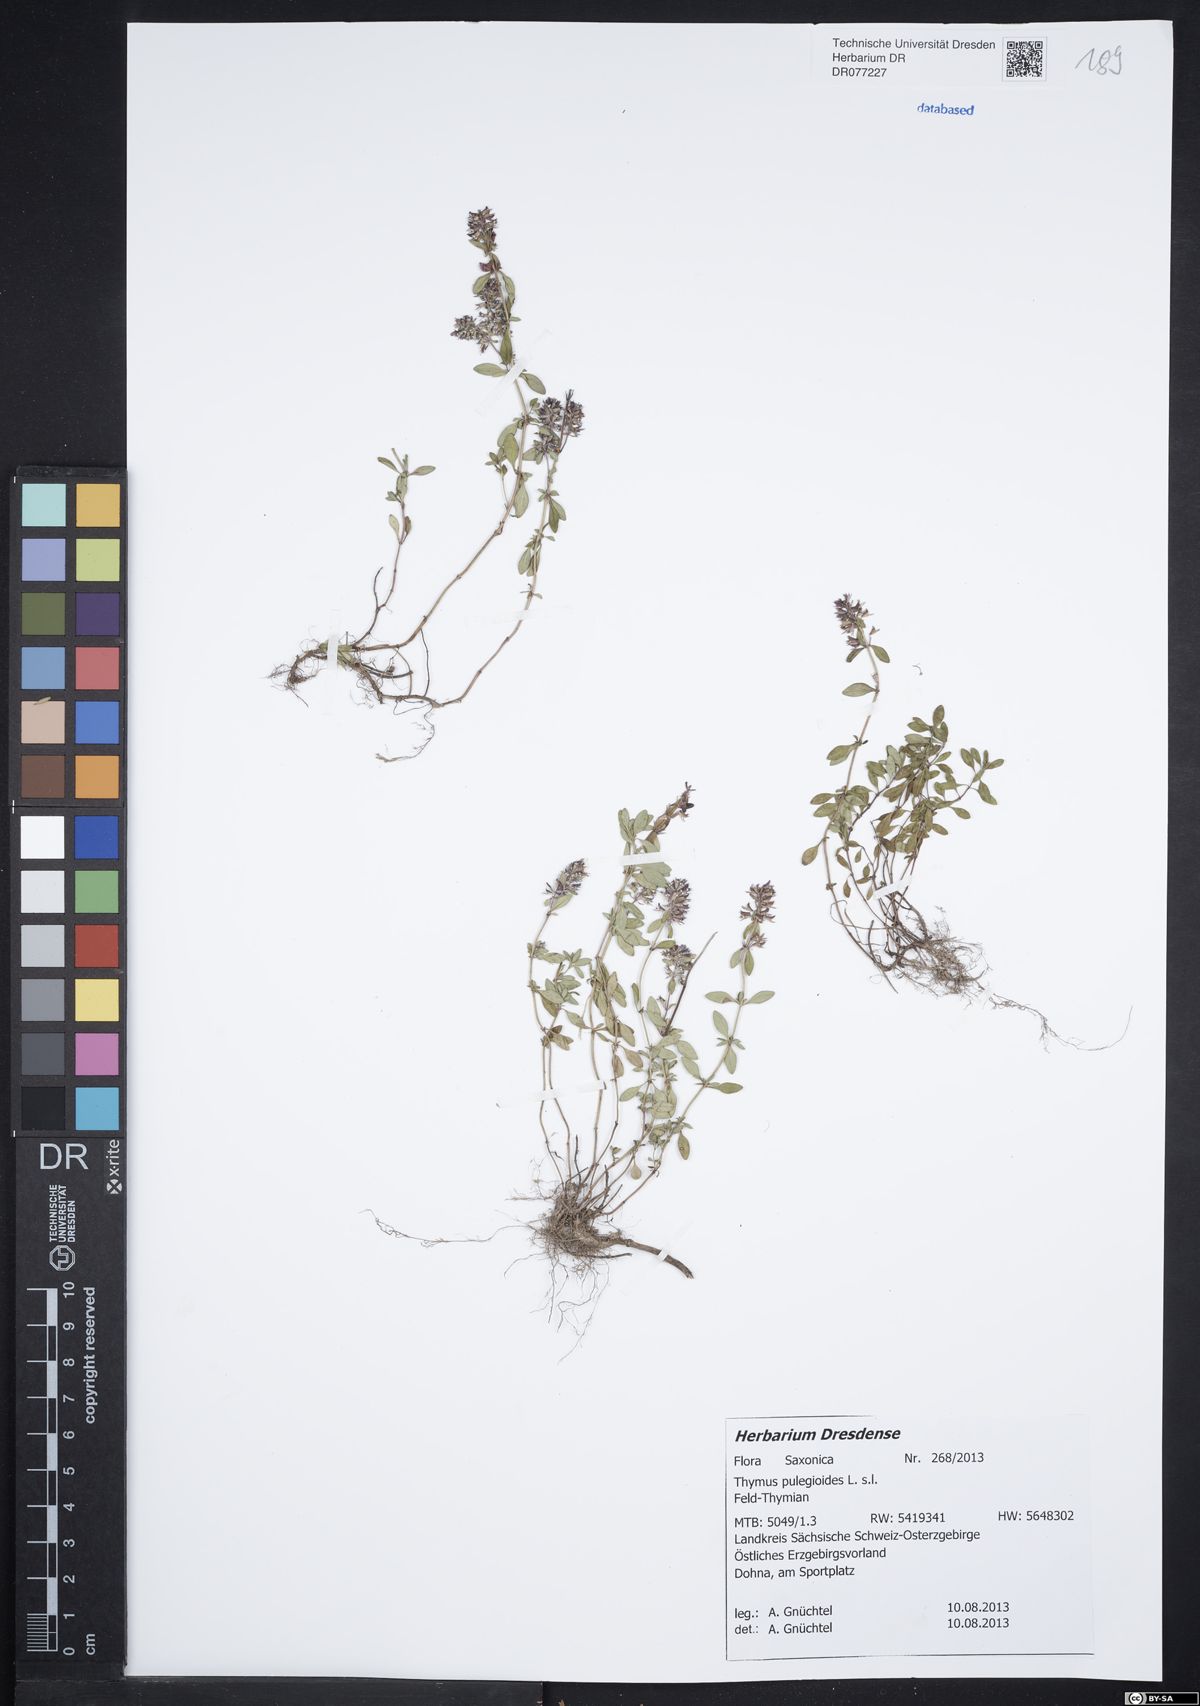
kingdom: Plantae
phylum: Tracheophyta
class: Magnoliopsida
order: Lamiales
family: Lamiaceae
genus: Thymus
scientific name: Thymus pulegioides
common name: Large thyme
